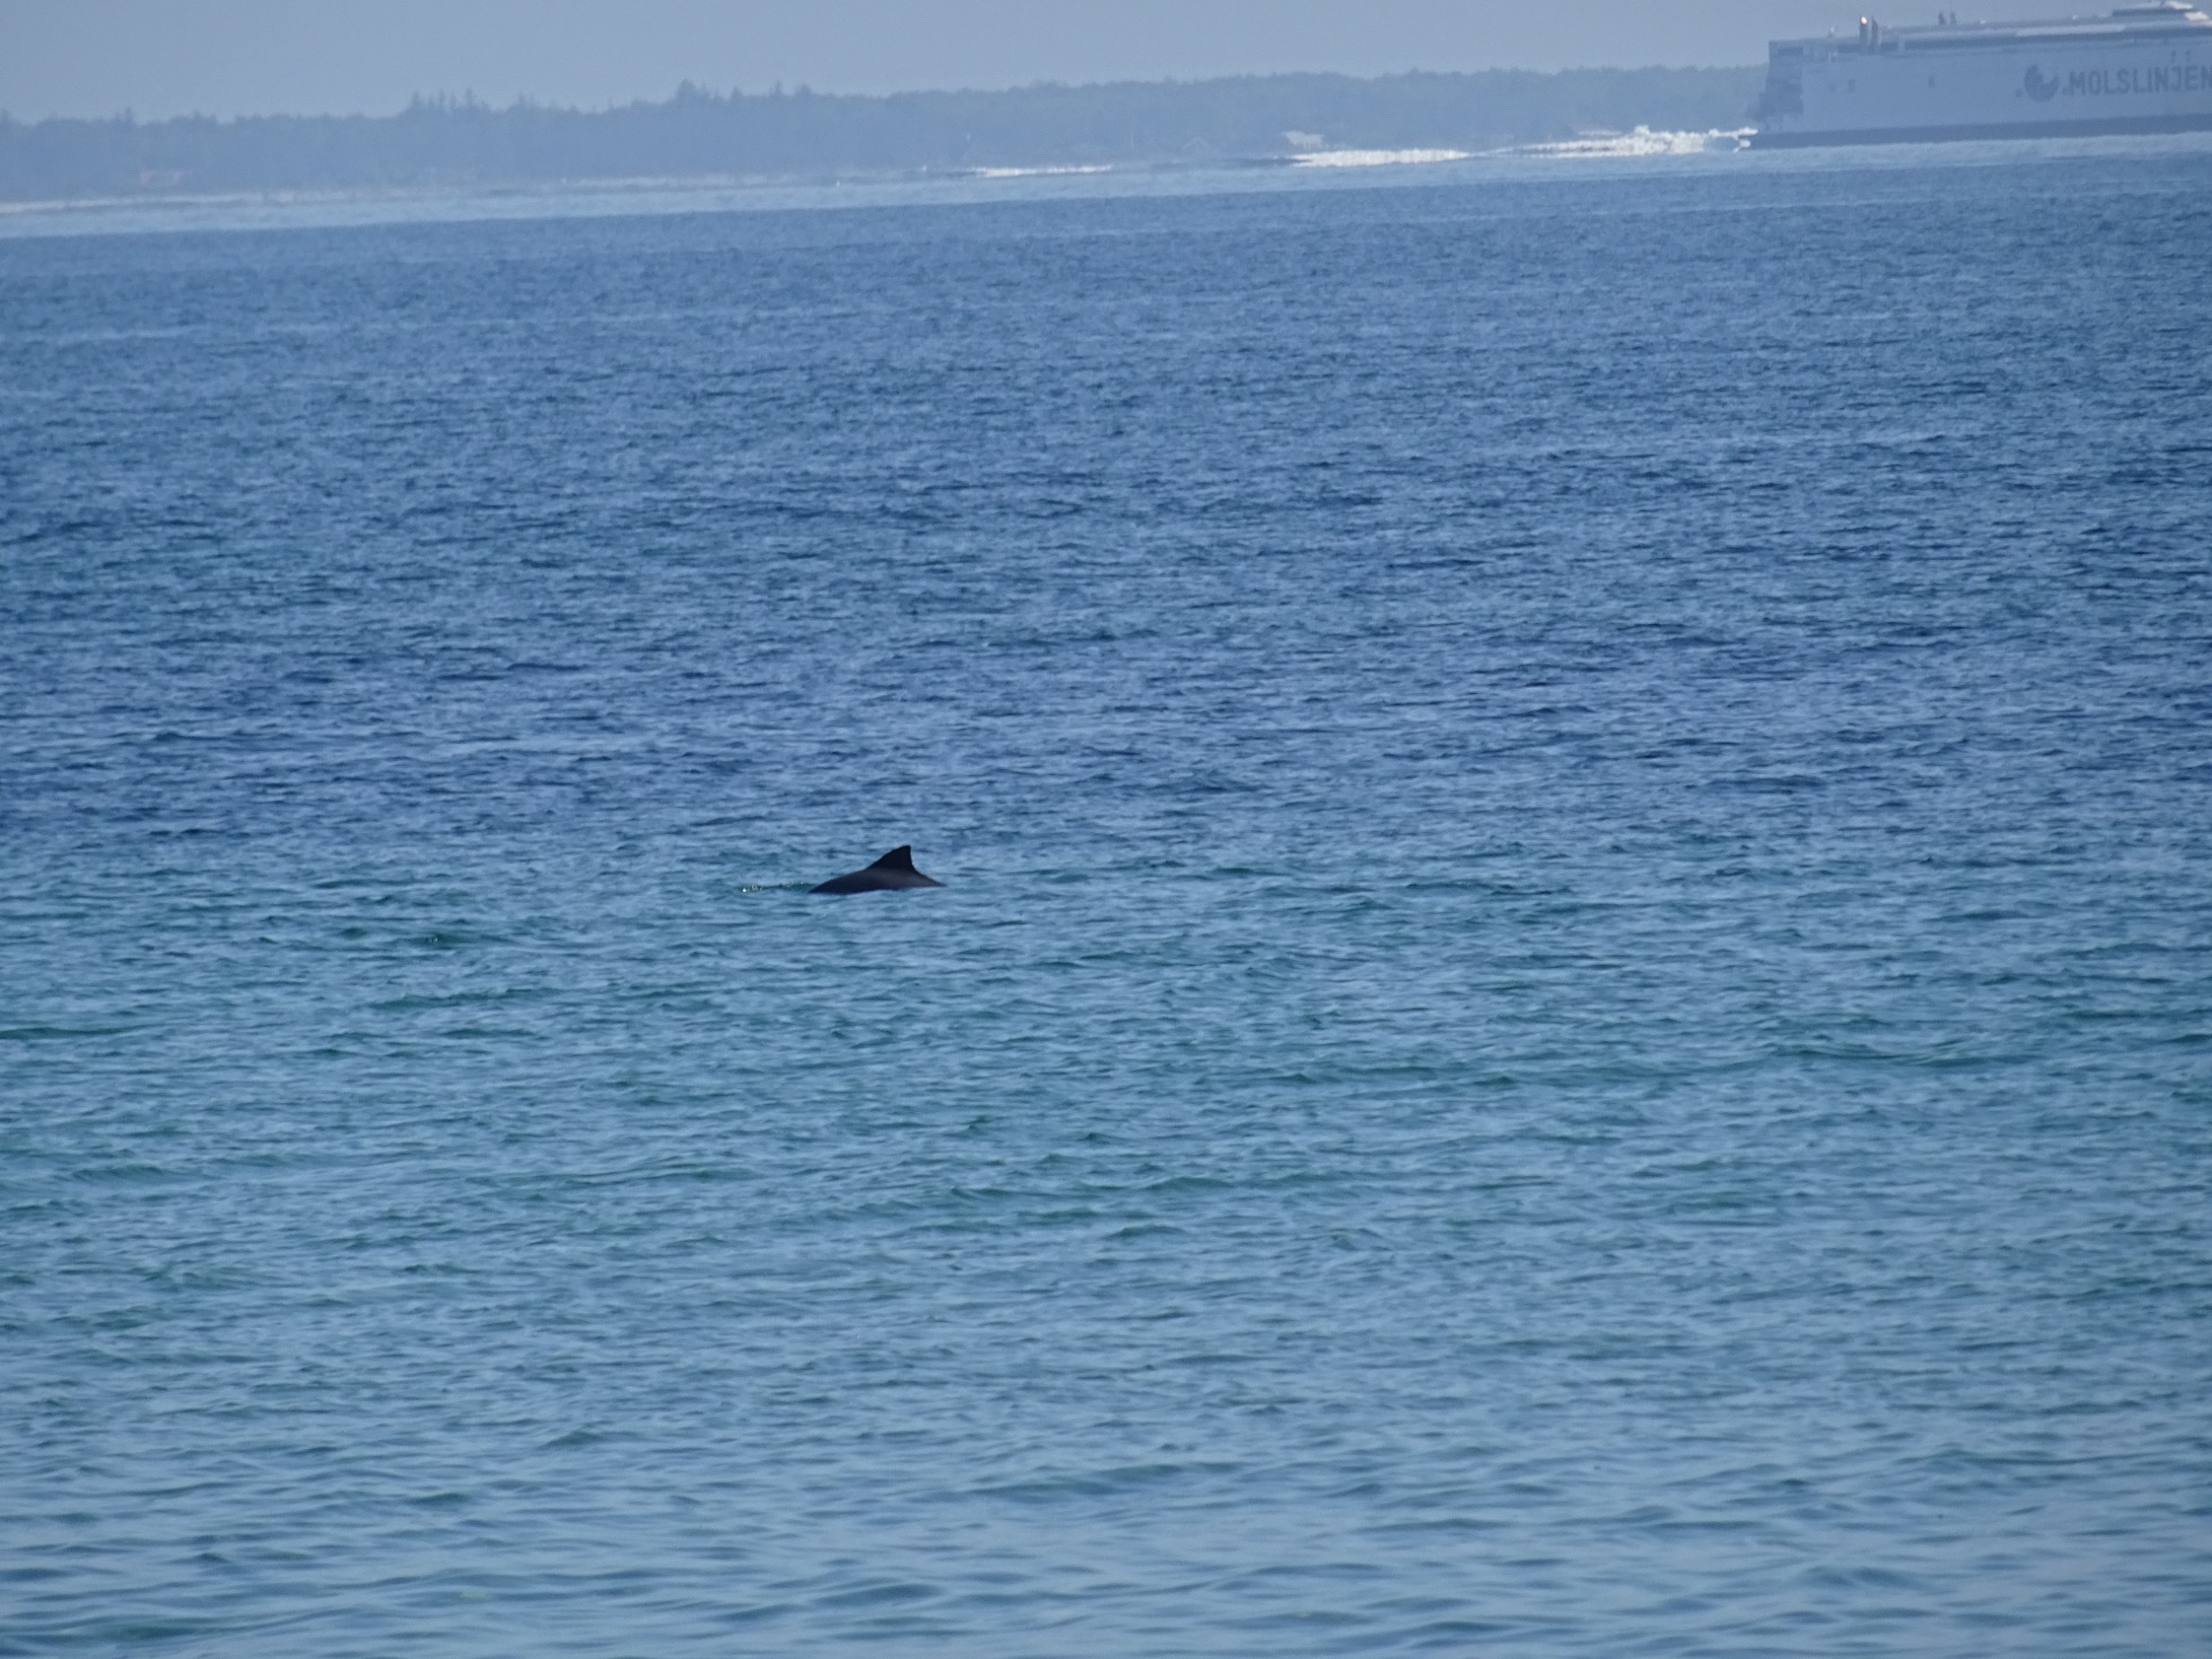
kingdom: Animalia
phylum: Chordata
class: Mammalia
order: Cetacea
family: Phocoenidae
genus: Phocoena
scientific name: Phocoena phocoena
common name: Marsvin
